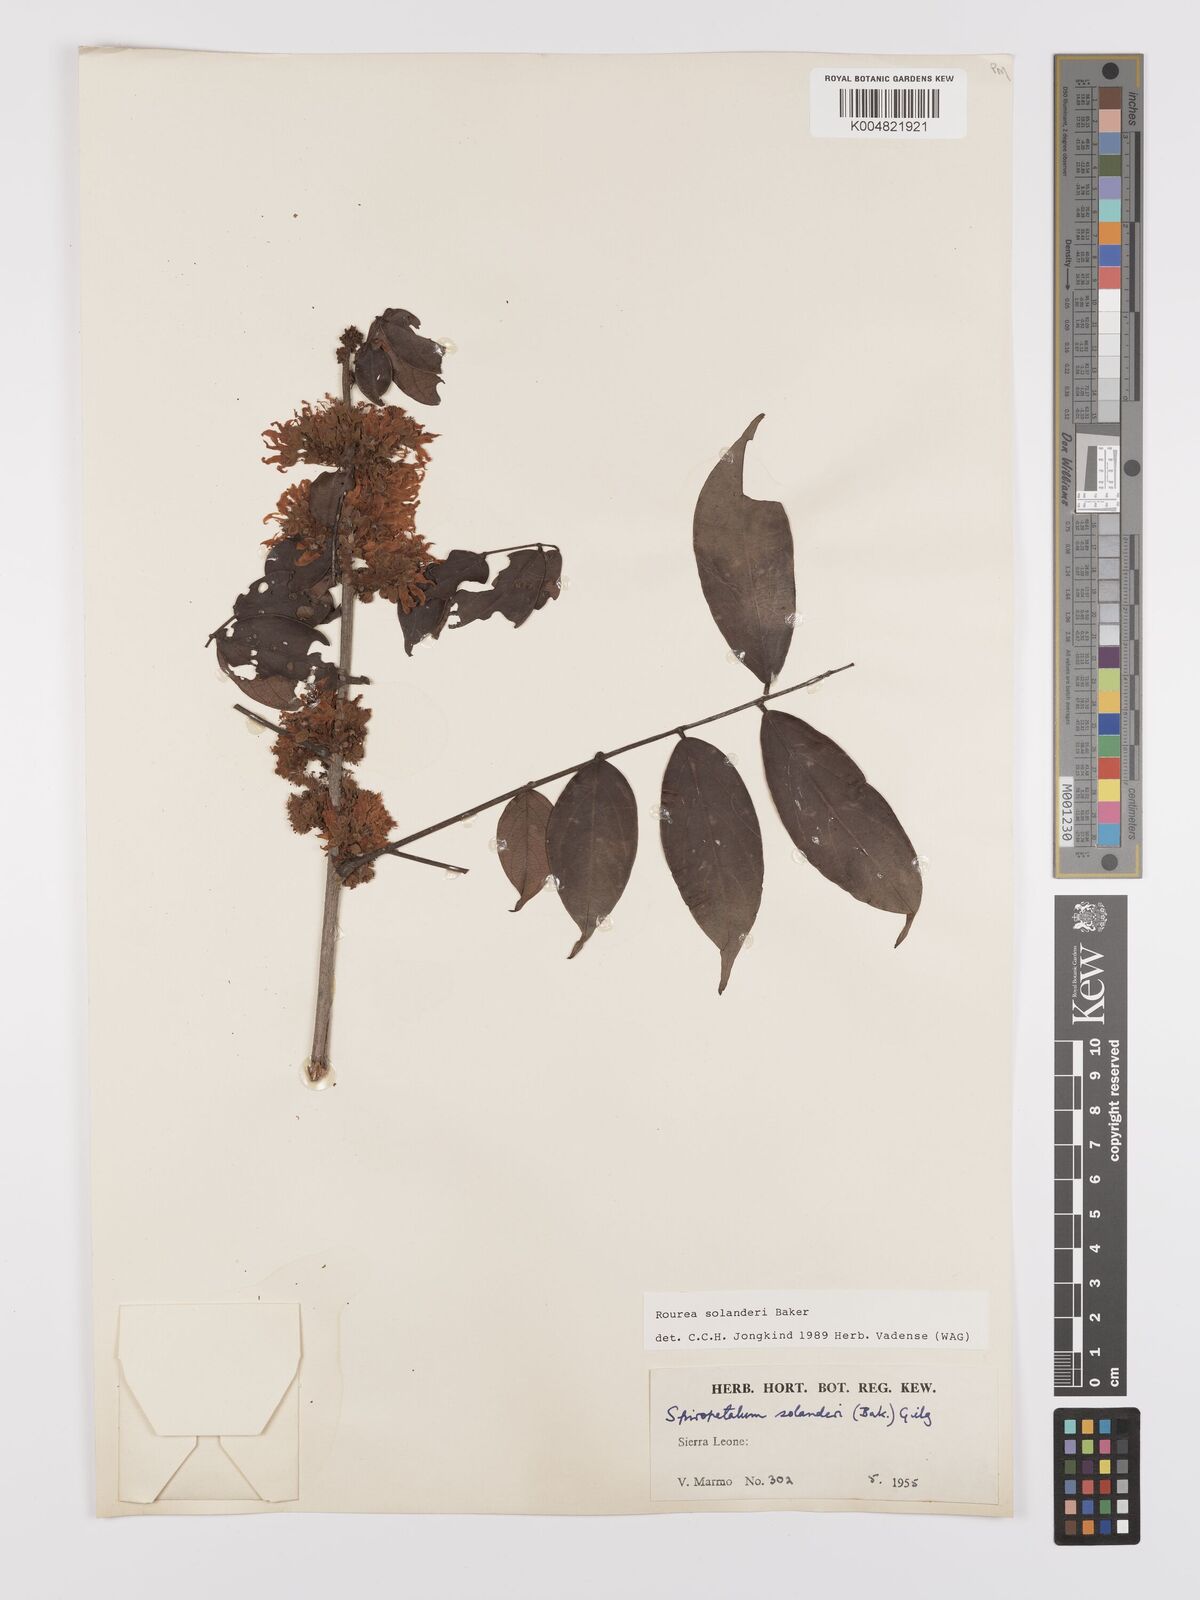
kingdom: Plantae
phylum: Tracheophyta
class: Magnoliopsida
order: Oxalidales
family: Connaraceae
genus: Rourea
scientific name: Rourea solanderi
